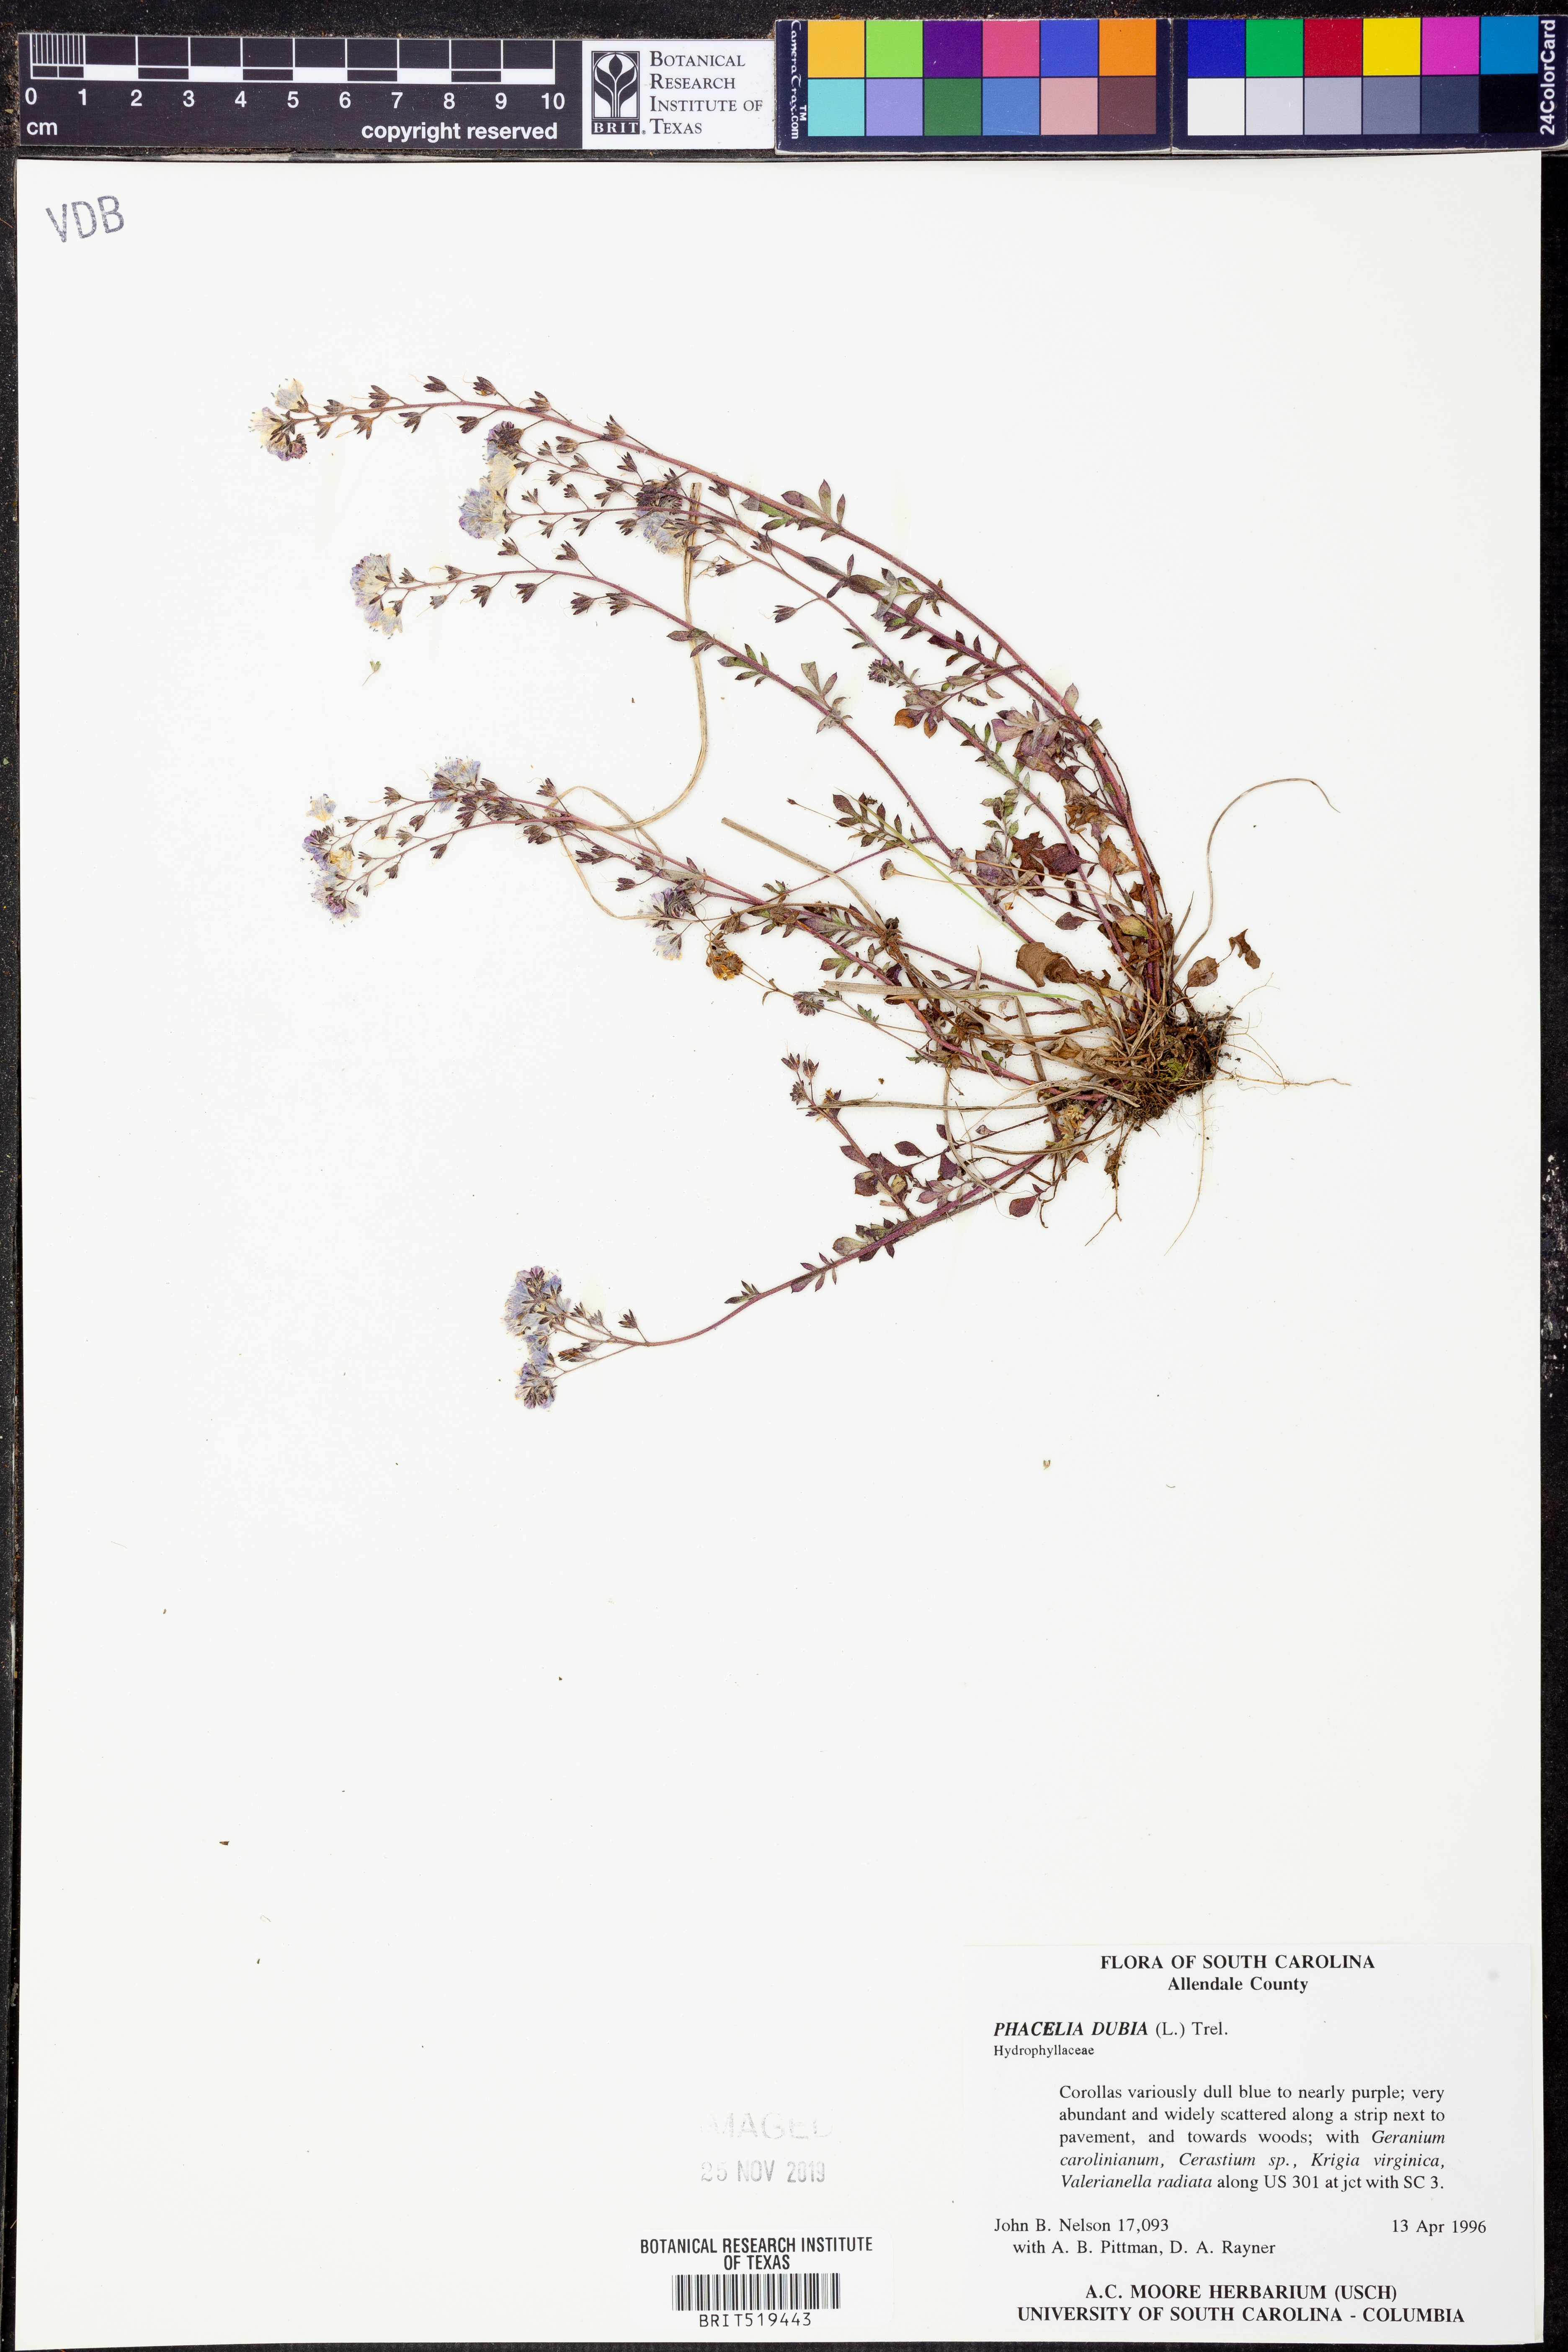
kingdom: Plantae
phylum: Tracheophyta
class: Magnoliopsida
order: Boraginales
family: Hydrophyllaceae
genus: Phacelia
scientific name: Phacelia dubia
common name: Appalachian phacelia
